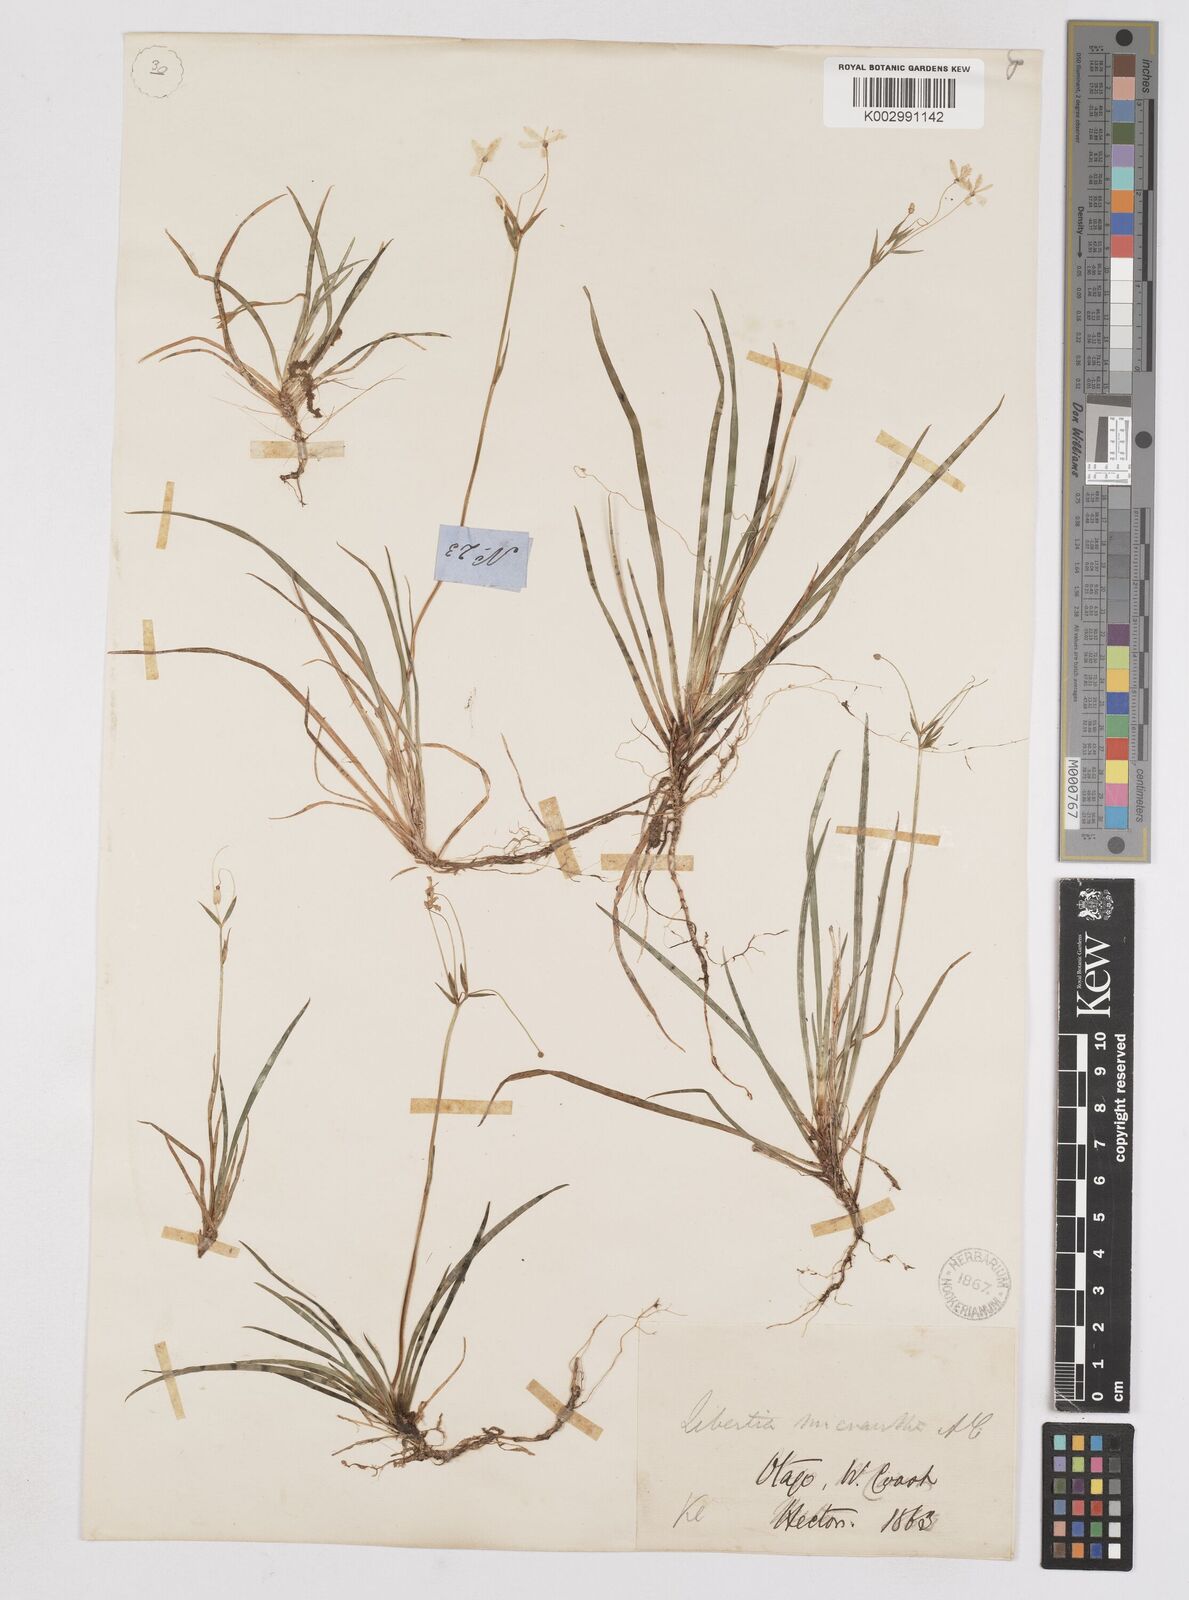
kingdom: Plantae
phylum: Tracheophyta
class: Liliopsida
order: Asparagales
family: Iridaceae
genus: Libertia
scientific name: Libertia pulchella
